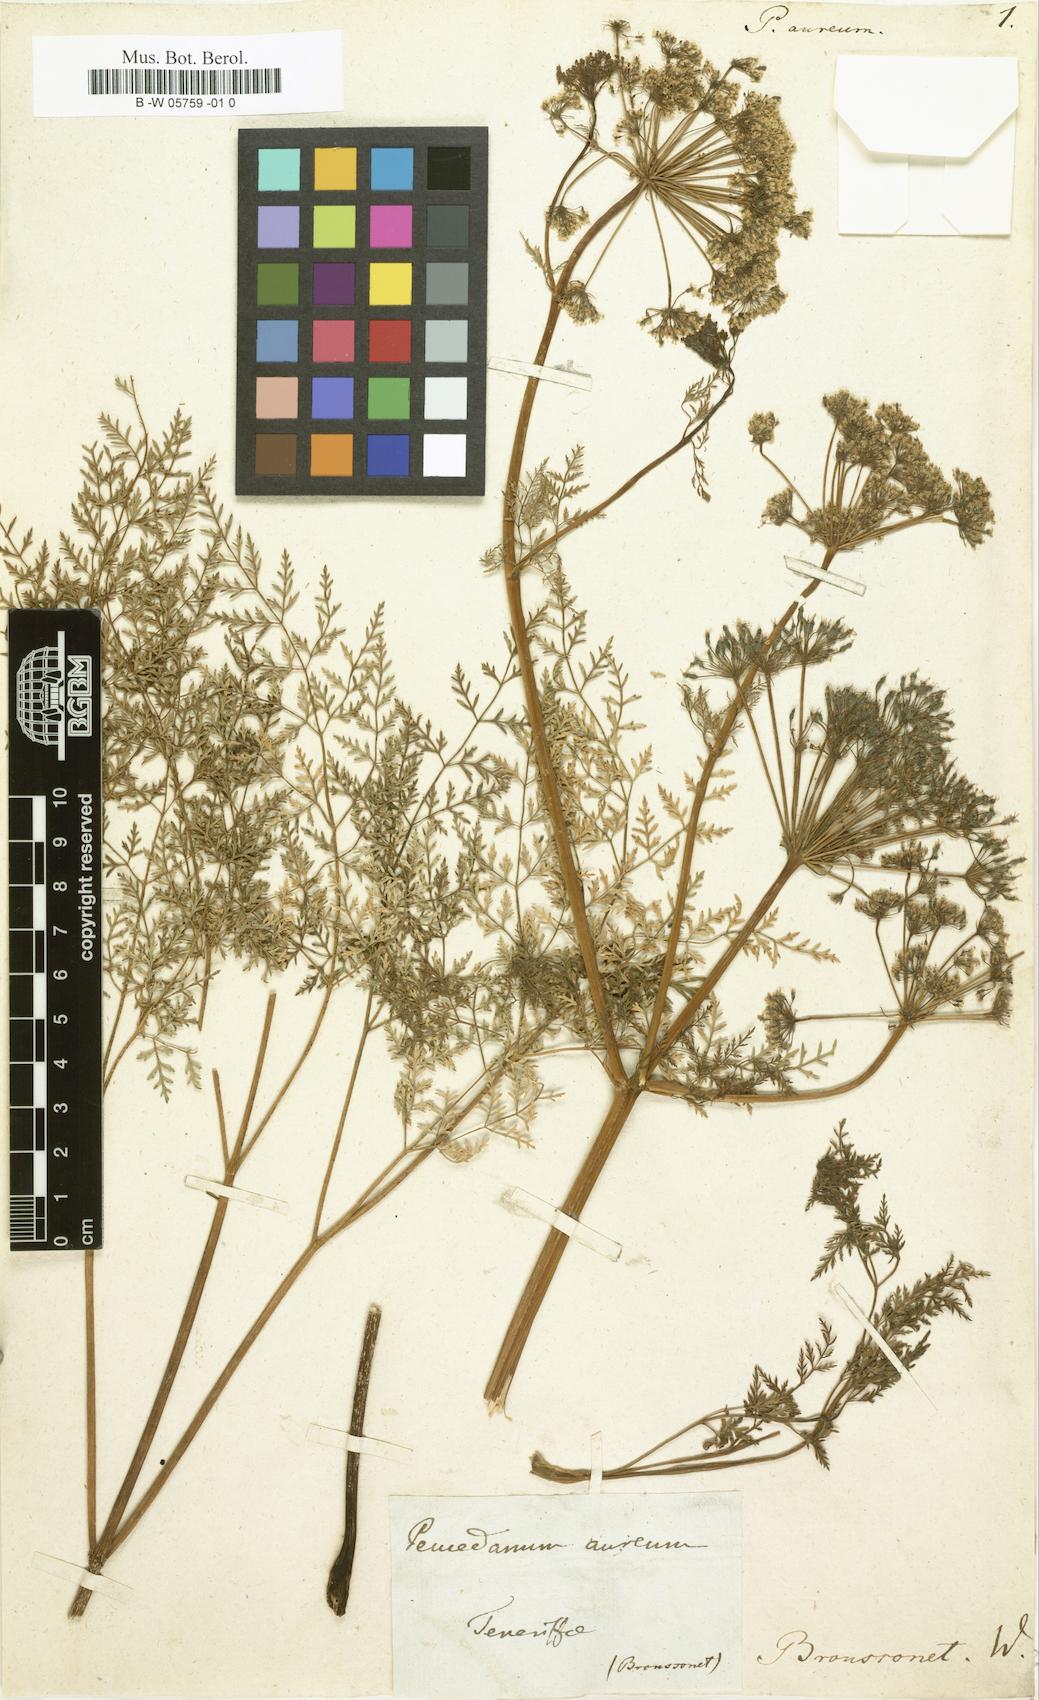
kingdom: Plantae
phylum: Tracheophyta
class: Magnoliopsida
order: Apiales
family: Apiaceae
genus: Todaroa
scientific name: Todaroa aurea
